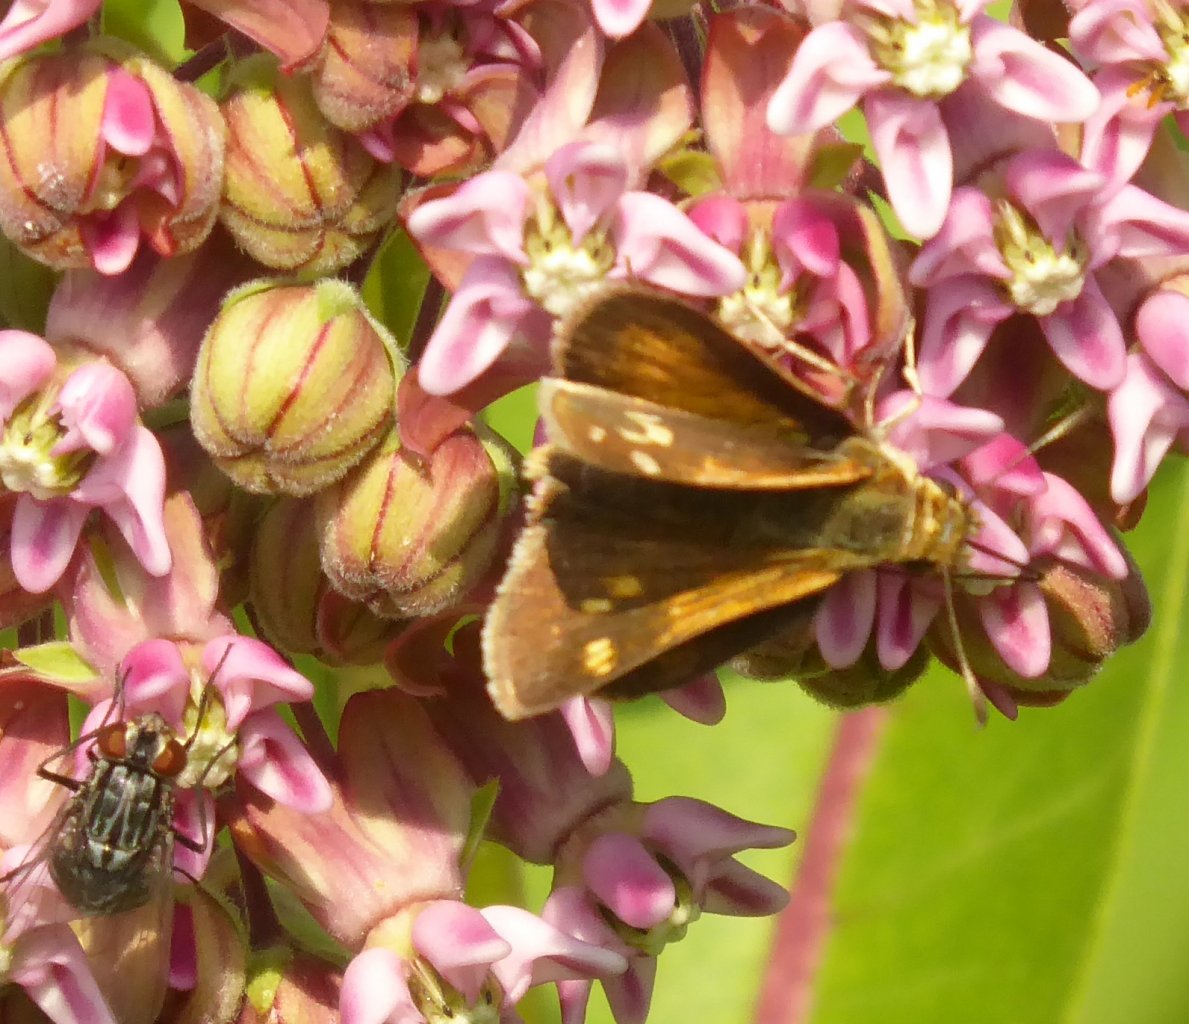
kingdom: Animalia
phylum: Arthropoda
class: Insecta
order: Lepidoptera
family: Hesperiidae
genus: Polites
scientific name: Polites themistocles
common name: Tawny-edged Skipper
